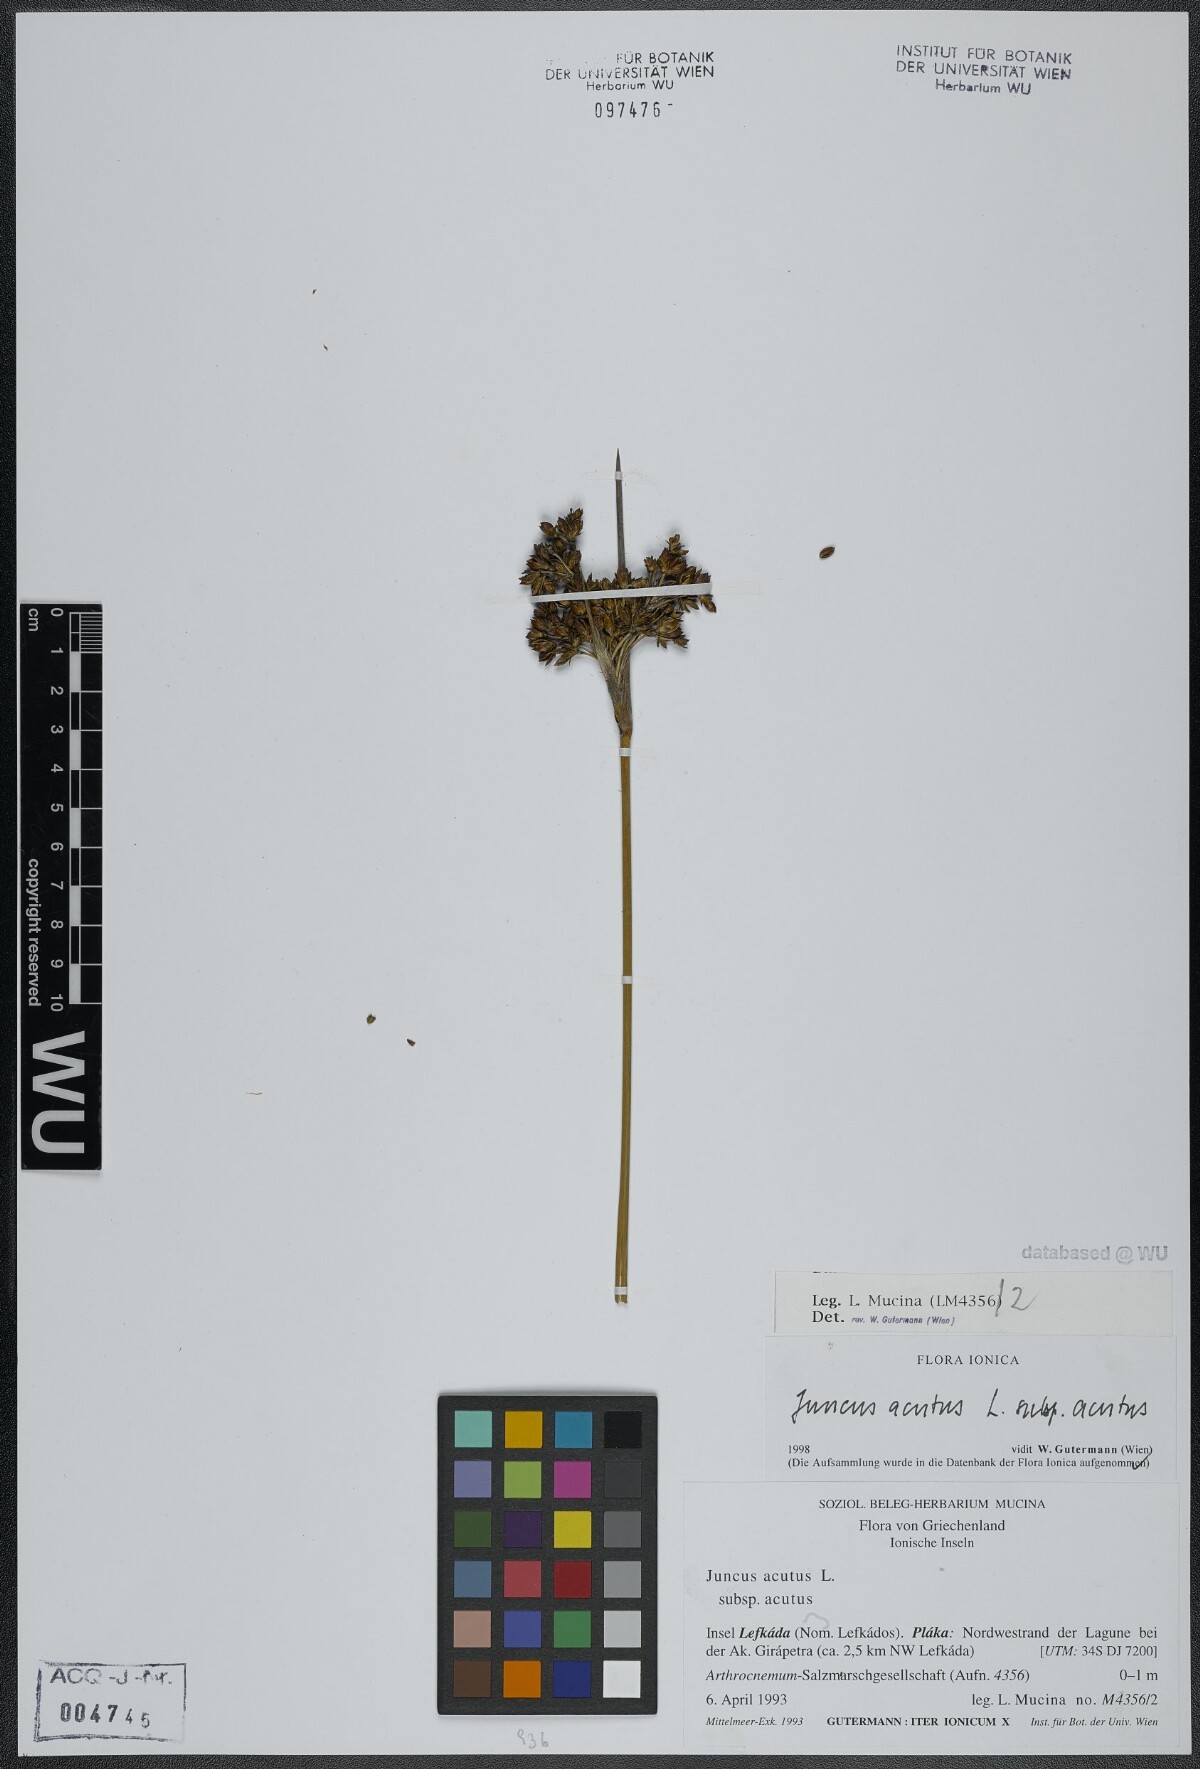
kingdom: Plantae
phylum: Tracheophyta
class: Liliopsida
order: Poales
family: Juncaceae
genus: Juncus
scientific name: Juncus acutus
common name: Sharp rush
